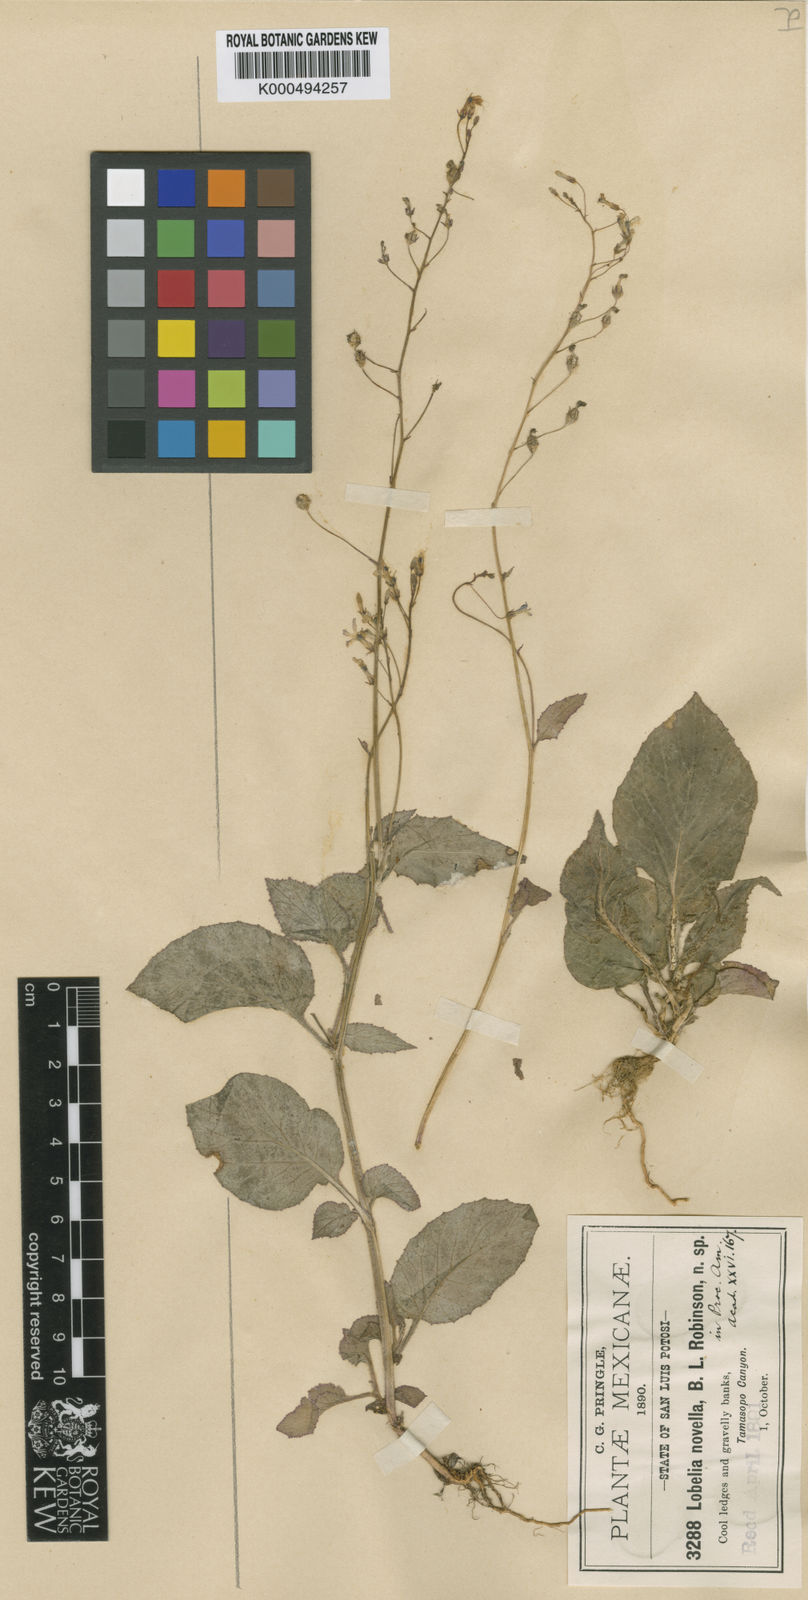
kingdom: Plantae
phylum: Tracheophyta
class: Magnoliopsida
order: Asterales
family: Campanulaceae
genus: Lobelia
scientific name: Lobelia sartorii
